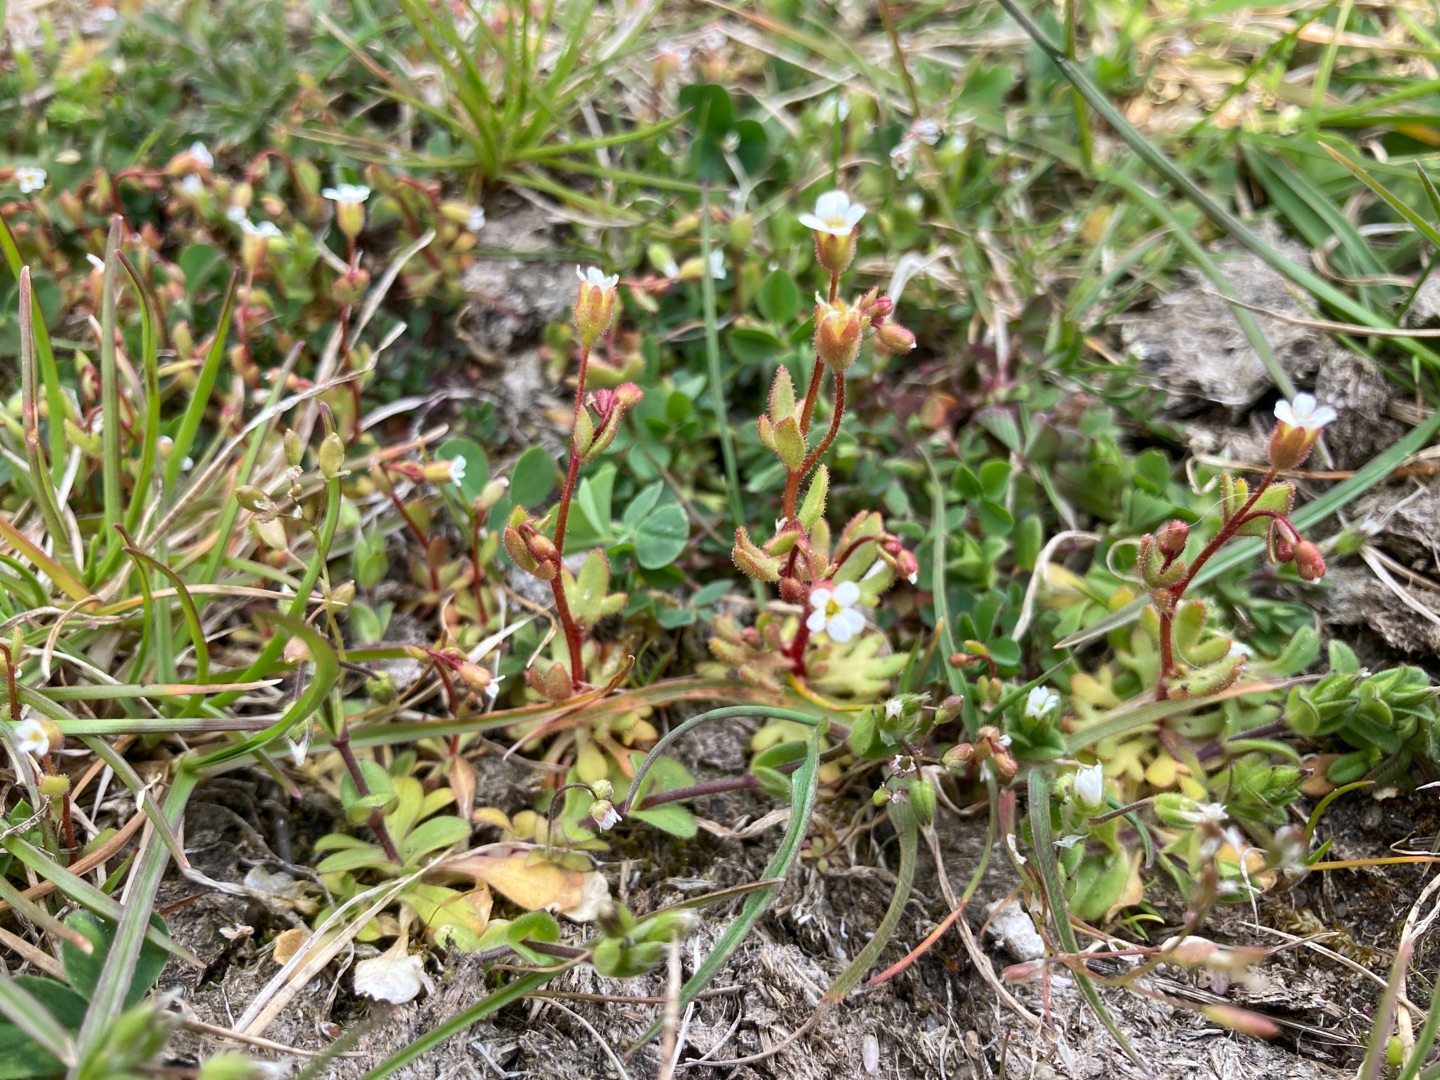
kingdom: Plantae
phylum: Tracheophyta
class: Magnoliopsida
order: Saxifragales
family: Saxifragaceae
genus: Saxifraga
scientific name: Saxifraga tridactylites
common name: Trekløft-stenbræk
